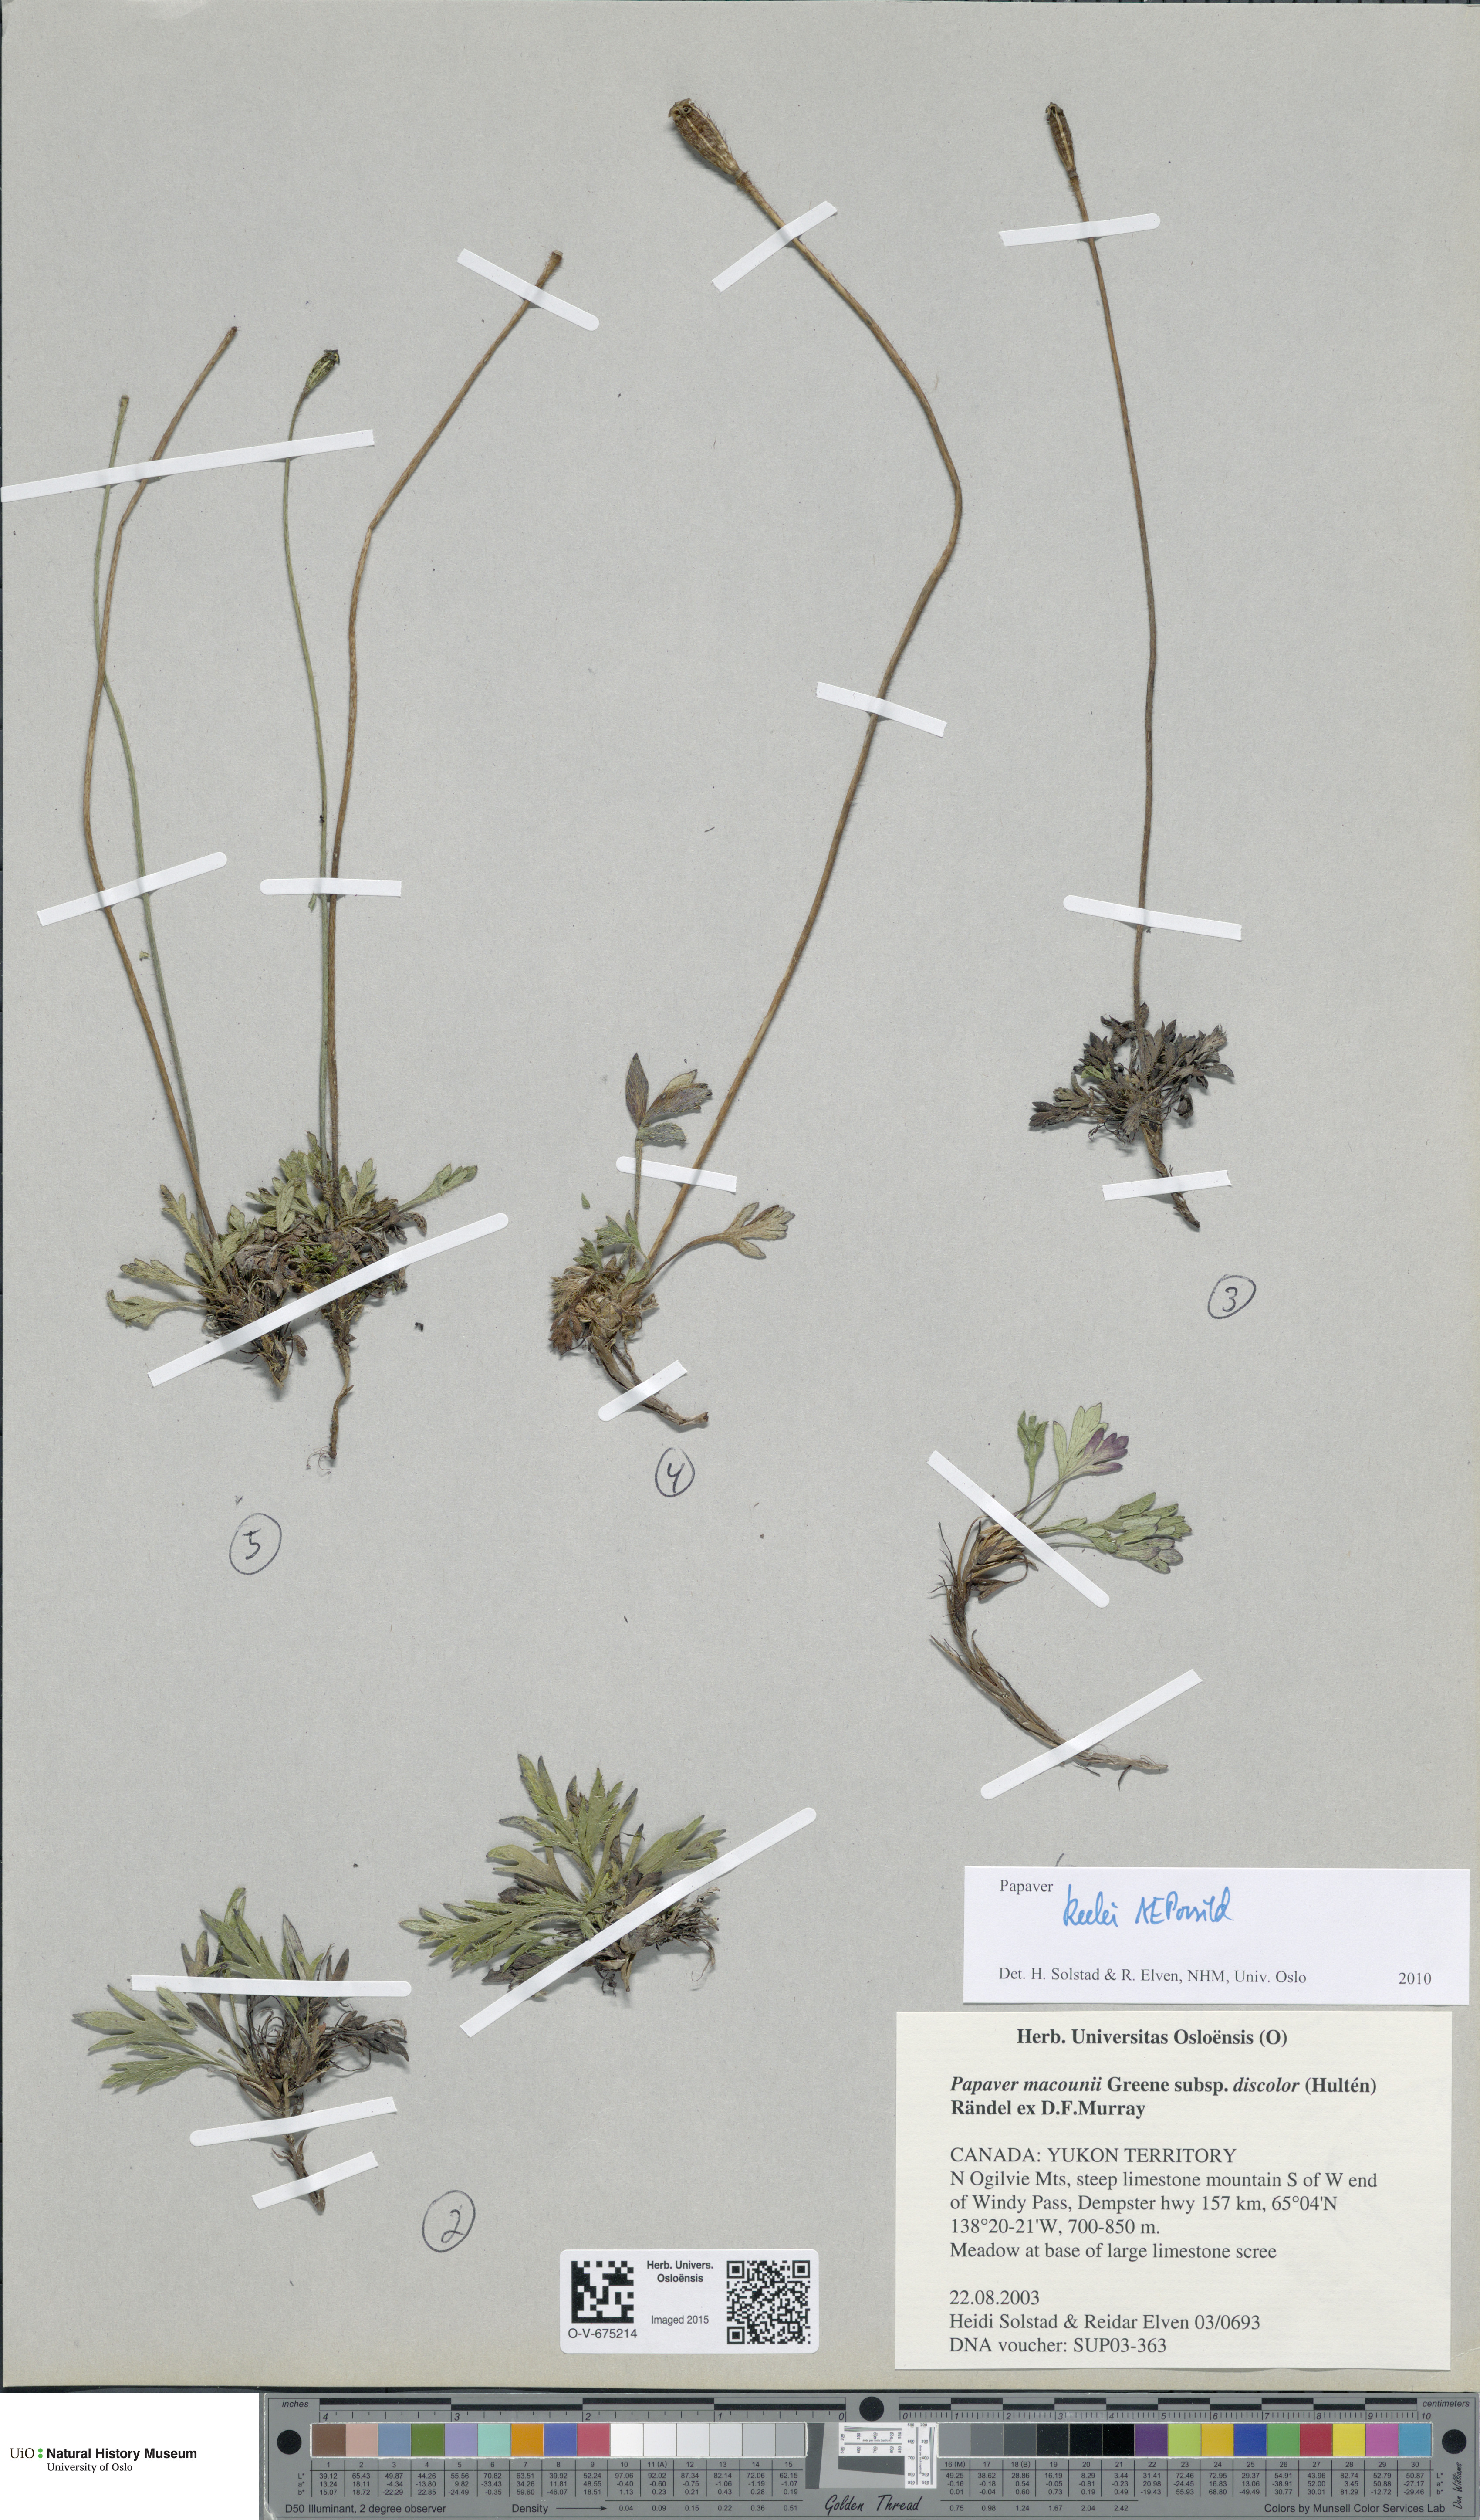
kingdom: Plantae
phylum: Tracheophyta
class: Magnoliopsida
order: Ranunculales
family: Papaveraceae
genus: Papaver
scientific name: Papaver macounii
